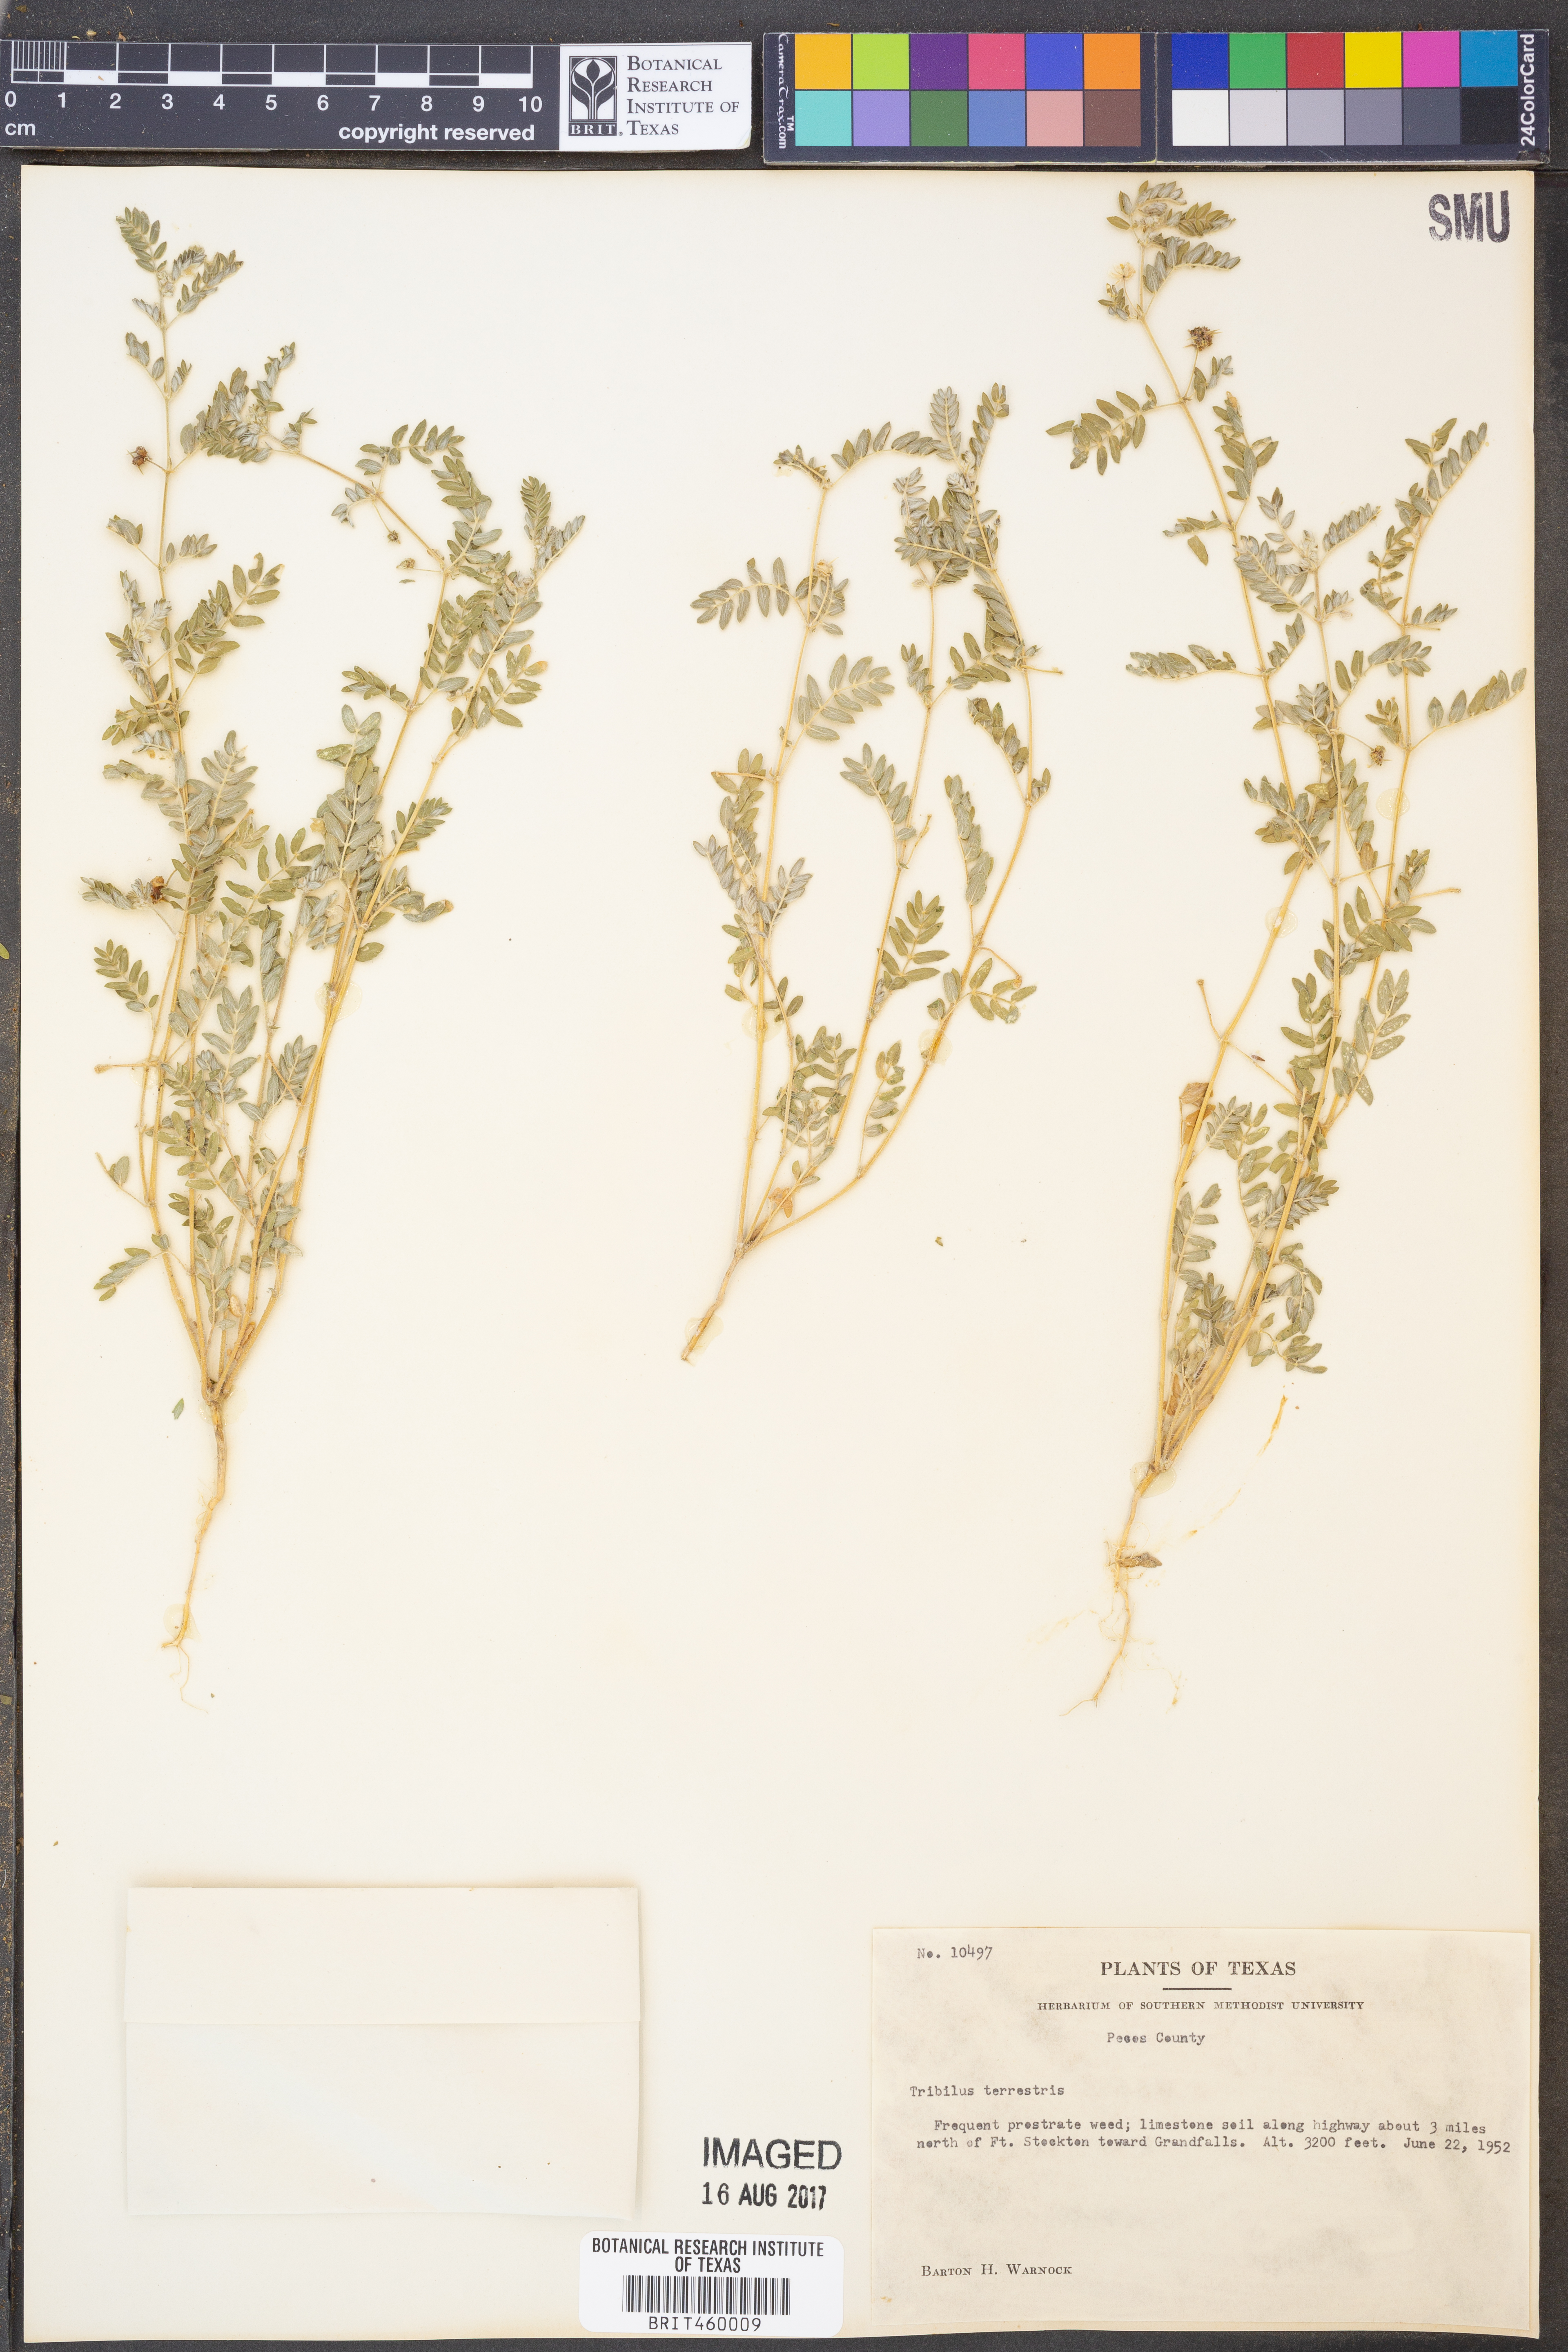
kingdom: Plantae
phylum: Tracheophyta
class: Magnoliopsida
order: Zygophyllales
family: Zygophyllaceae
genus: Tribulus
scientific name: Tribulus terrestris
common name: Puncturevine
